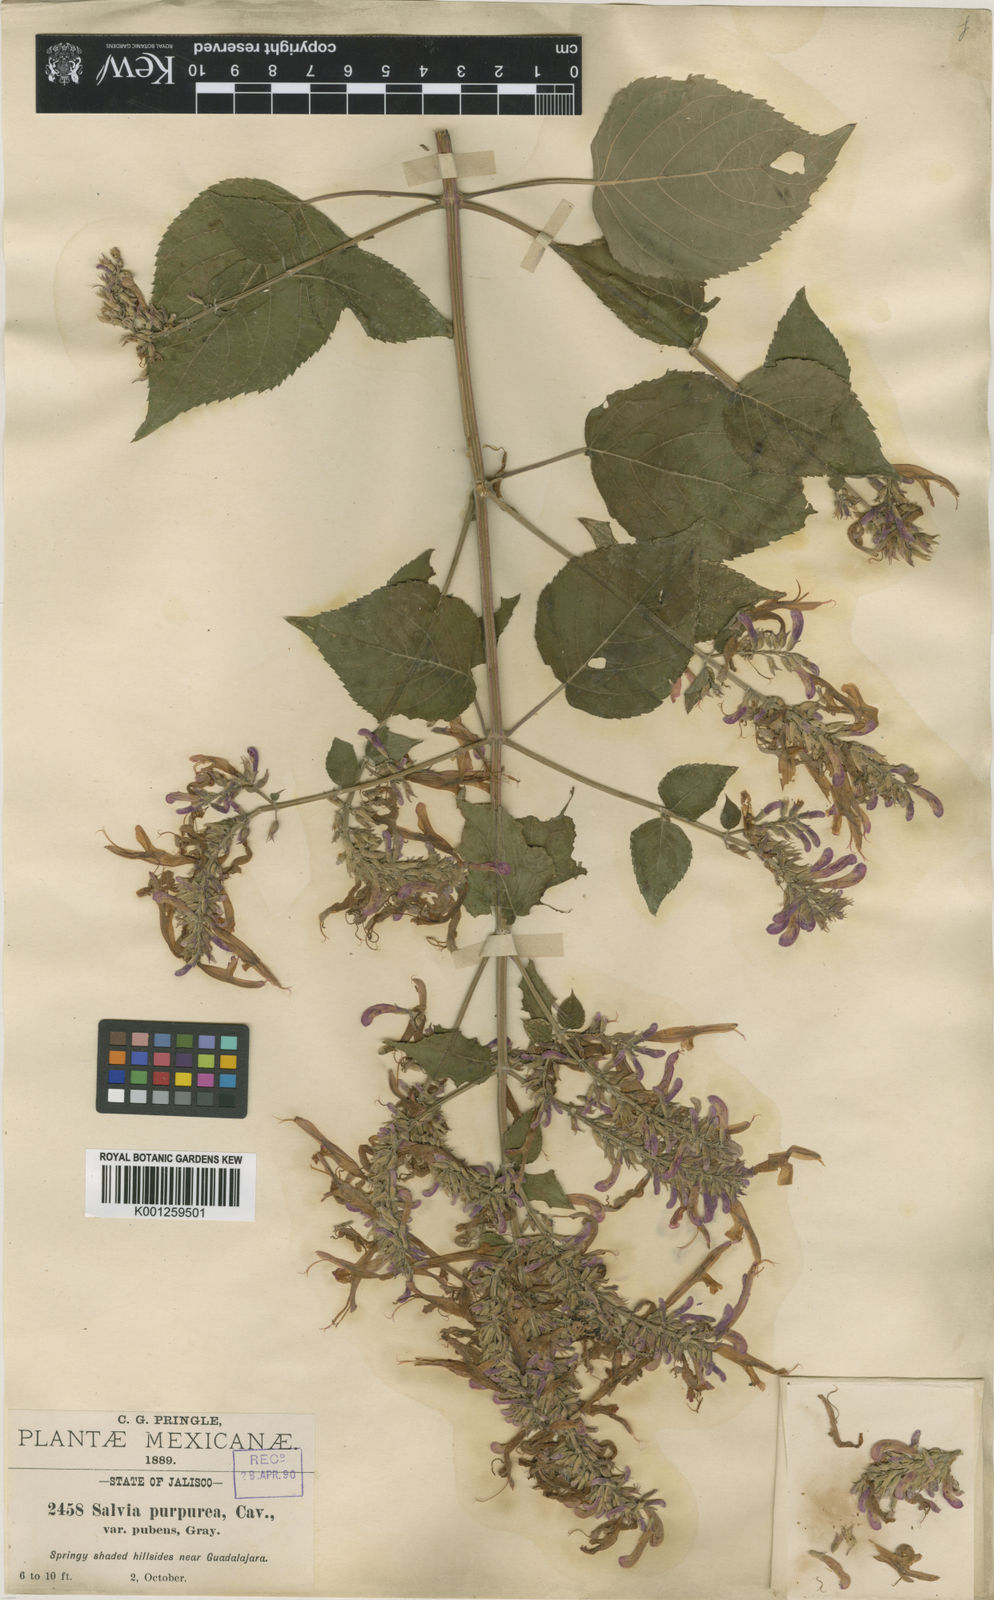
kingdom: Plantae
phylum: Tracheophyta
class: Magnoliopsida
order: Lamiales
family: Lamiaceae
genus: Salvia
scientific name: Salvia purpurea
